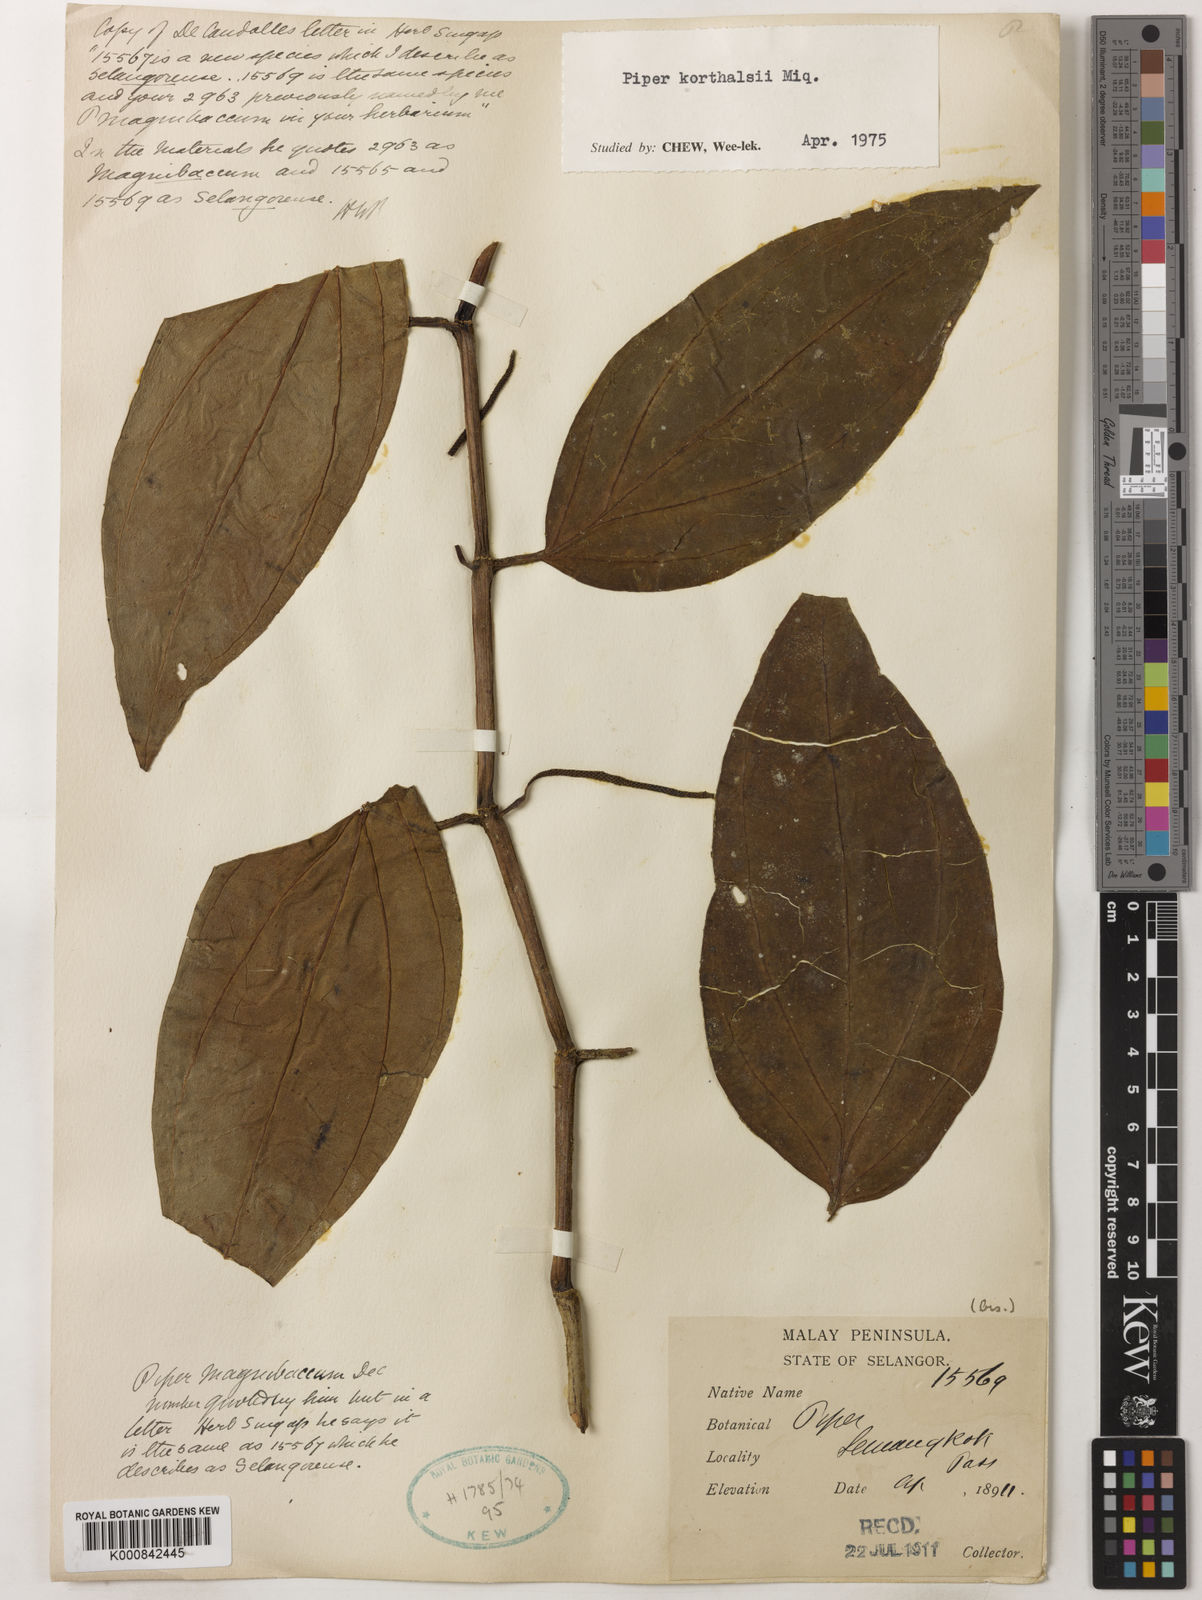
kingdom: Plantae
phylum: Tracheophyta
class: Magnoliopsida
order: Piperales
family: Piperaceae
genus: Piper
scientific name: Piper quinqueangulatum
